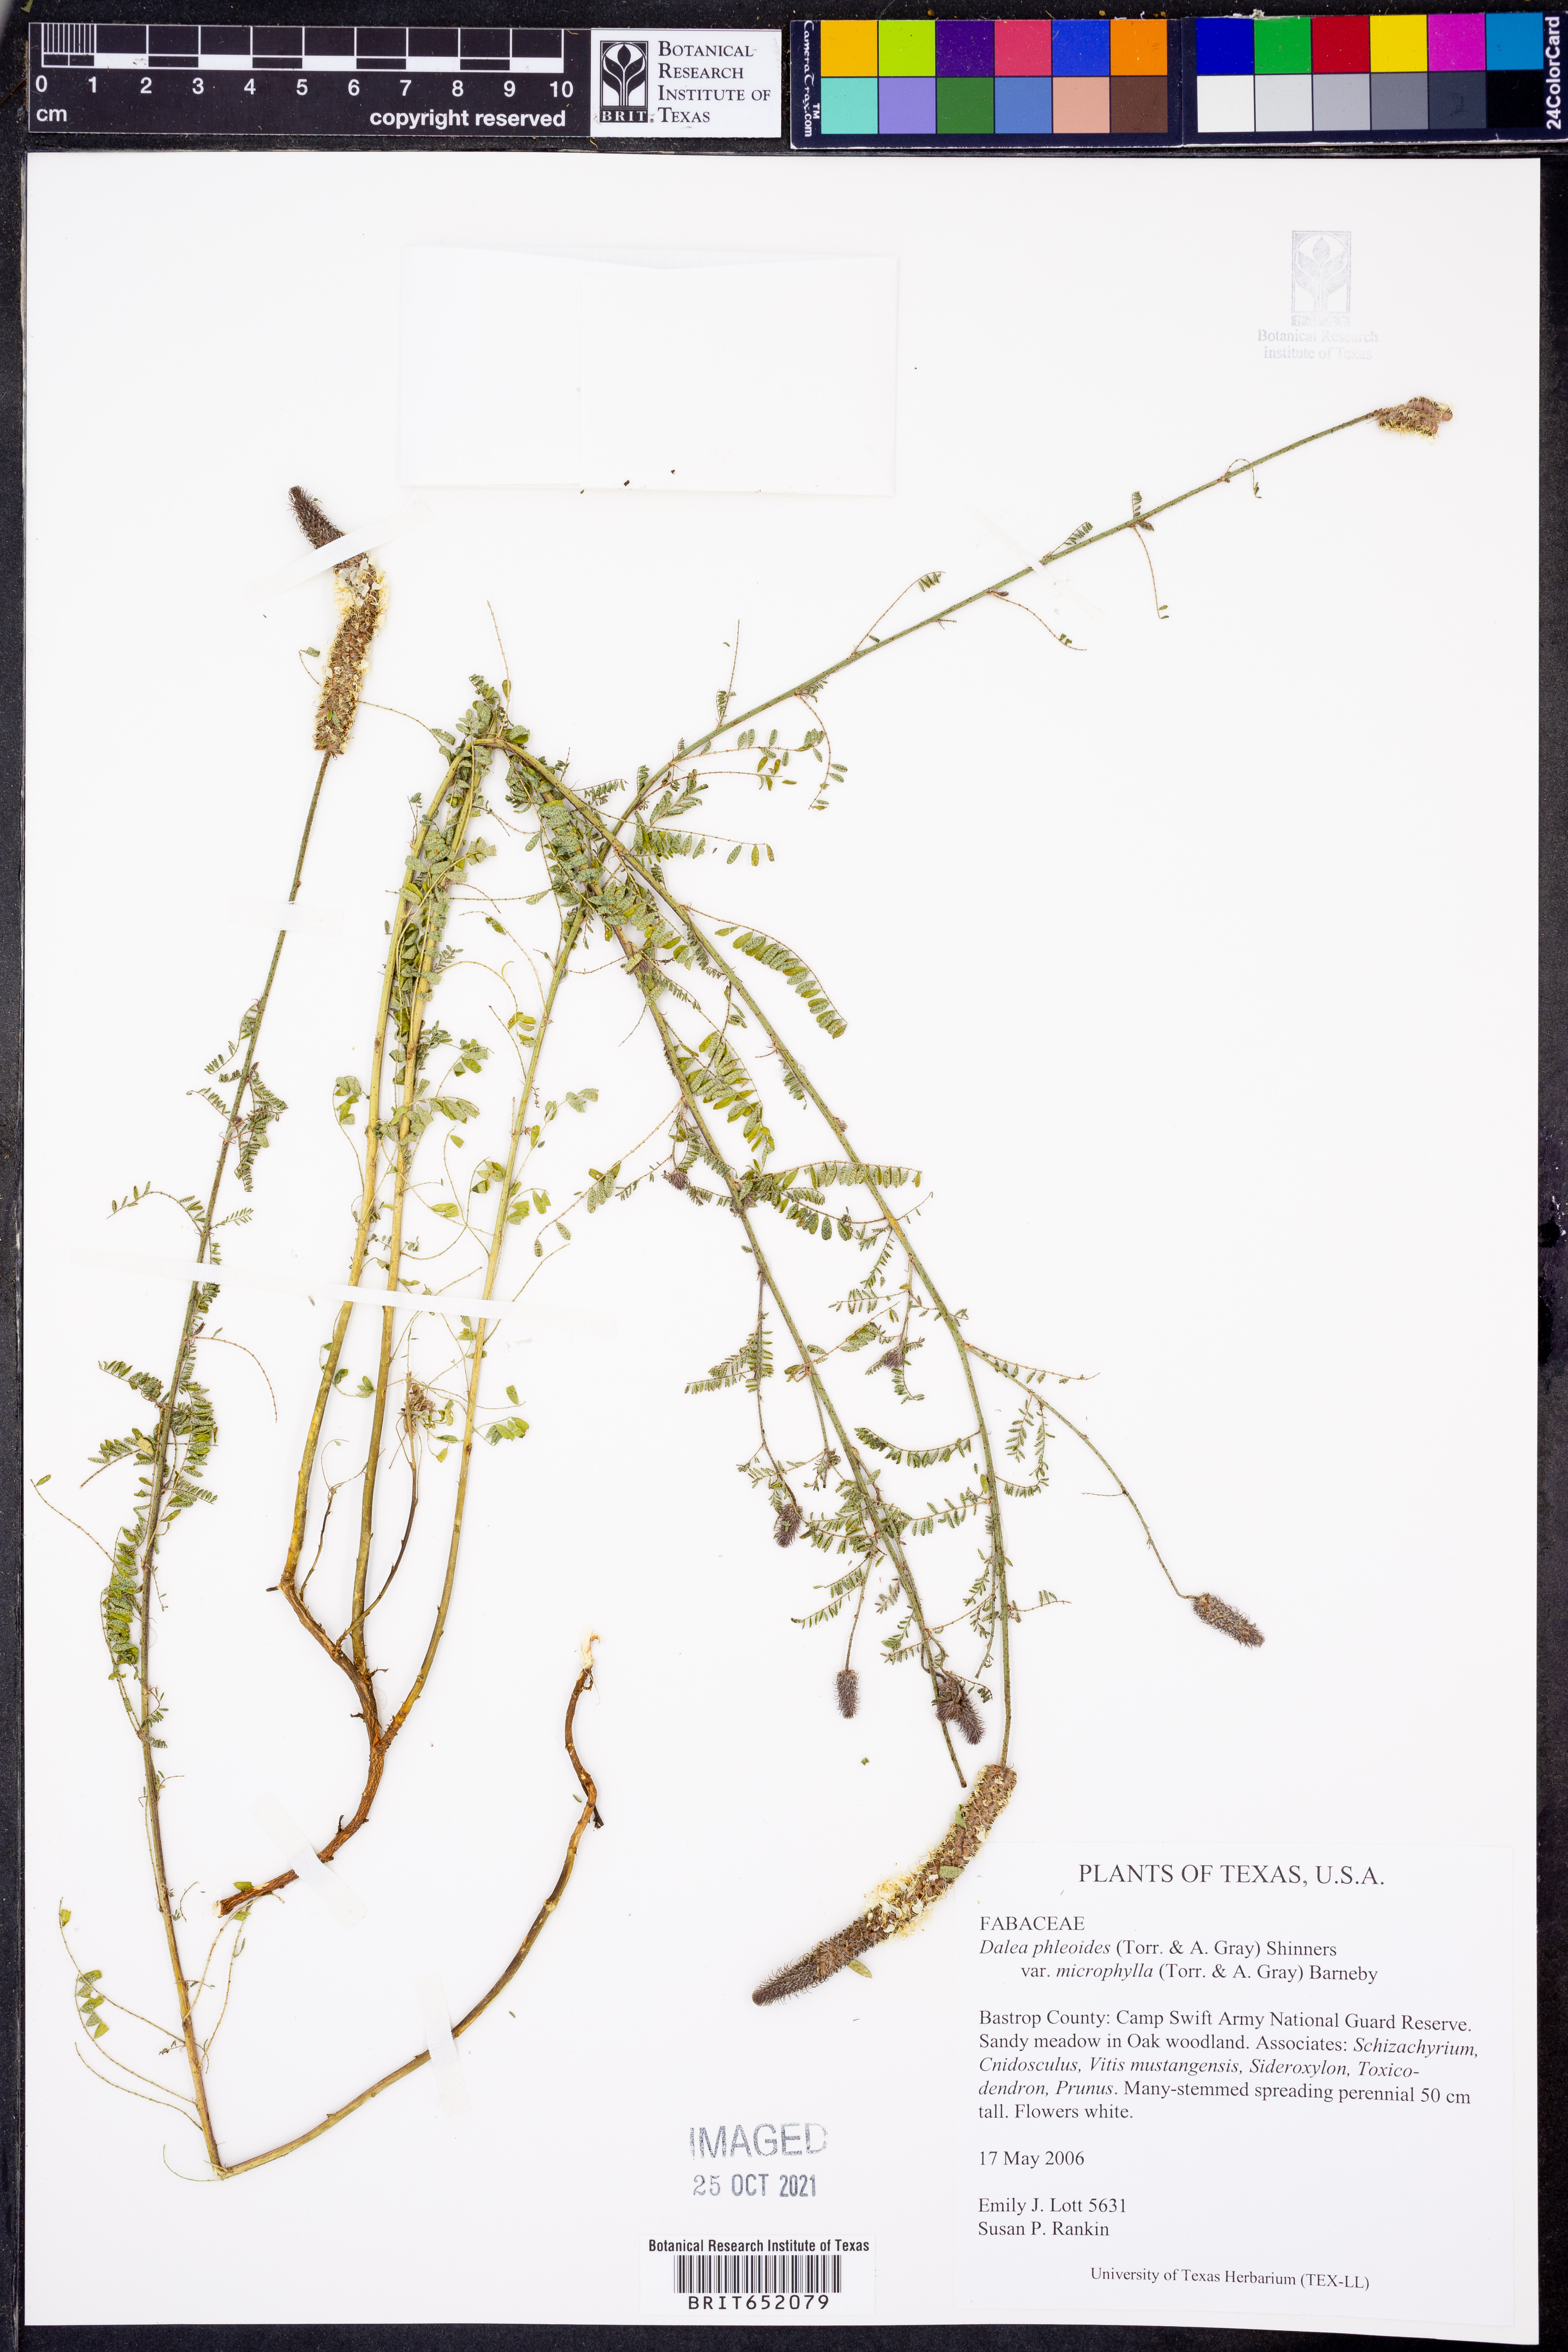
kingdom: Plantae
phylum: Tracheophyta
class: Magnoliopsida
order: Fabales
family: Fabaceae
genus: Dalea
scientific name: Dalea drummondiana
